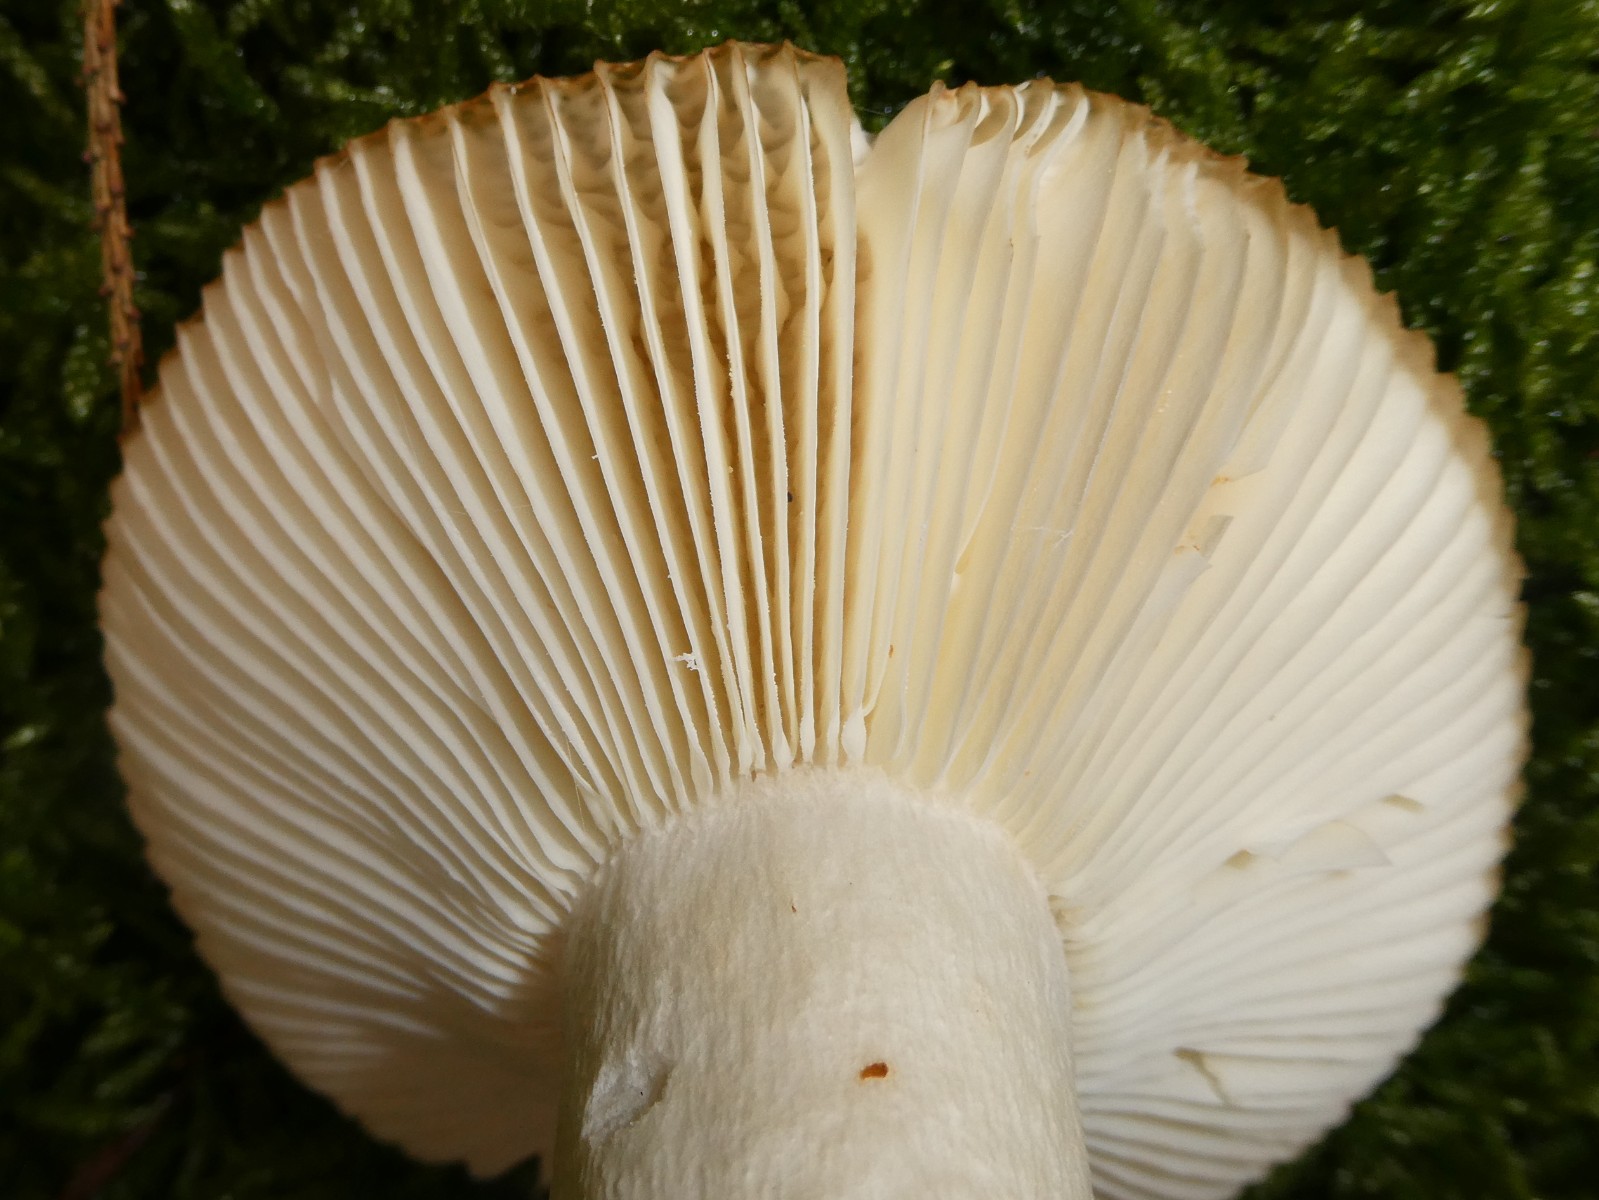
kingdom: Fungi
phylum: Basidiomycota
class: Agaricomycetes
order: Russulales
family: Russulaceae
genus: Russula
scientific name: Russula ochroleuca
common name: okkergul skørhat
